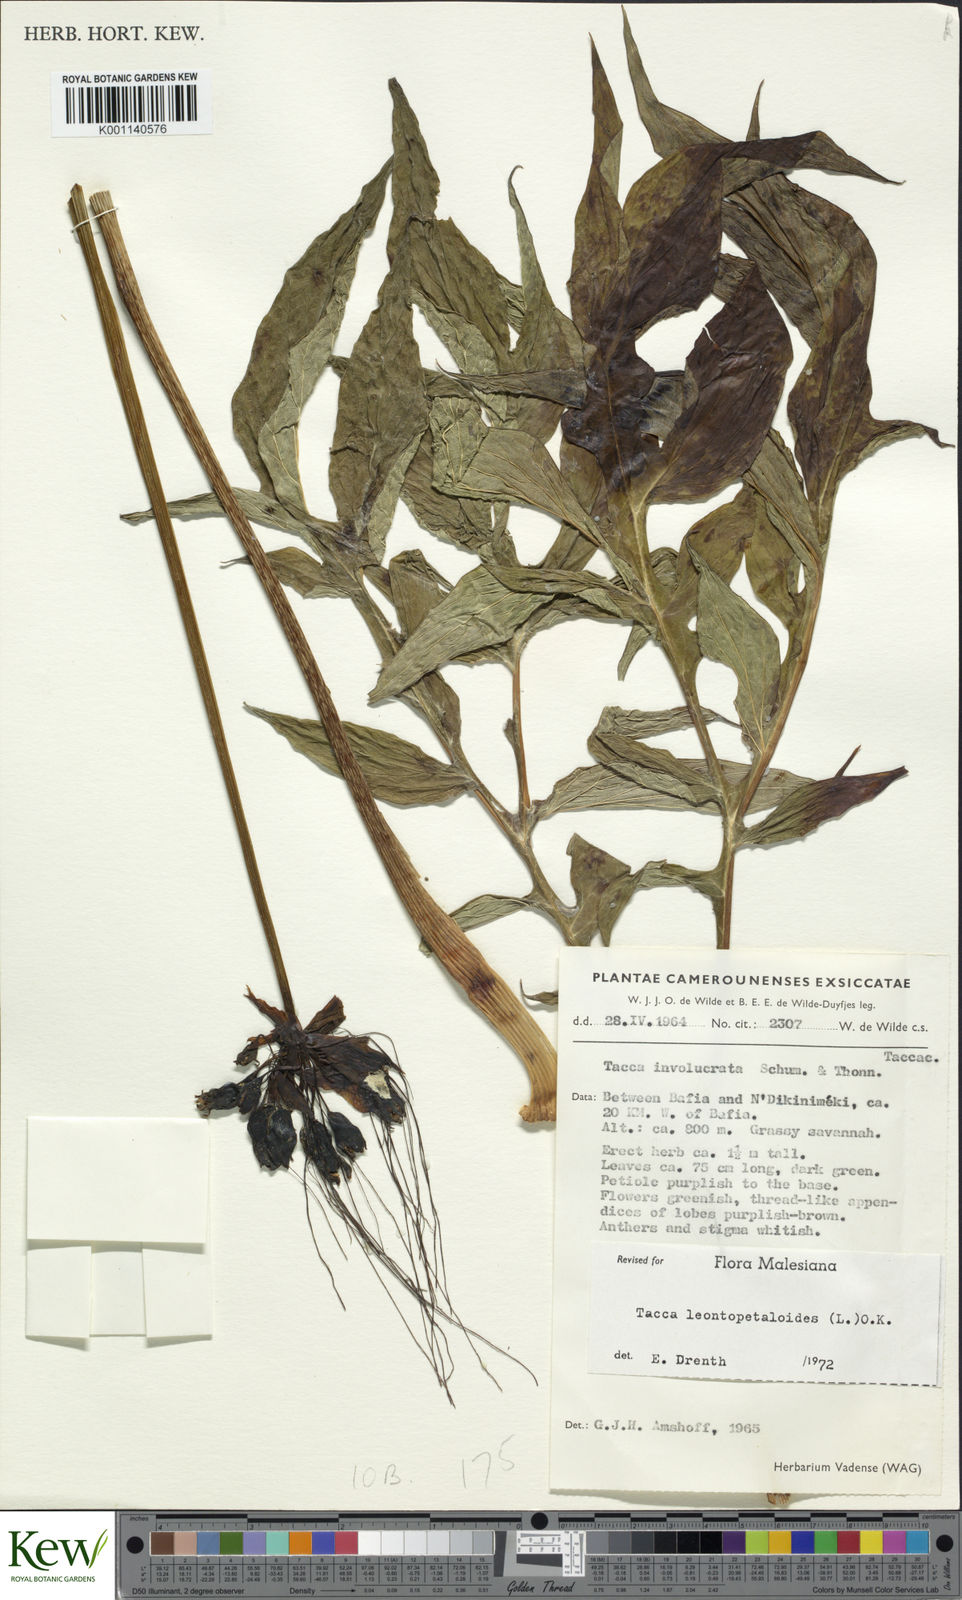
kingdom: Plantae
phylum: Tracheophyta
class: Liliopsida
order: Dioscoreales
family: Dioscoreaceae
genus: Tacca
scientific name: Tacca leontopetaloides
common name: Arrowroot
